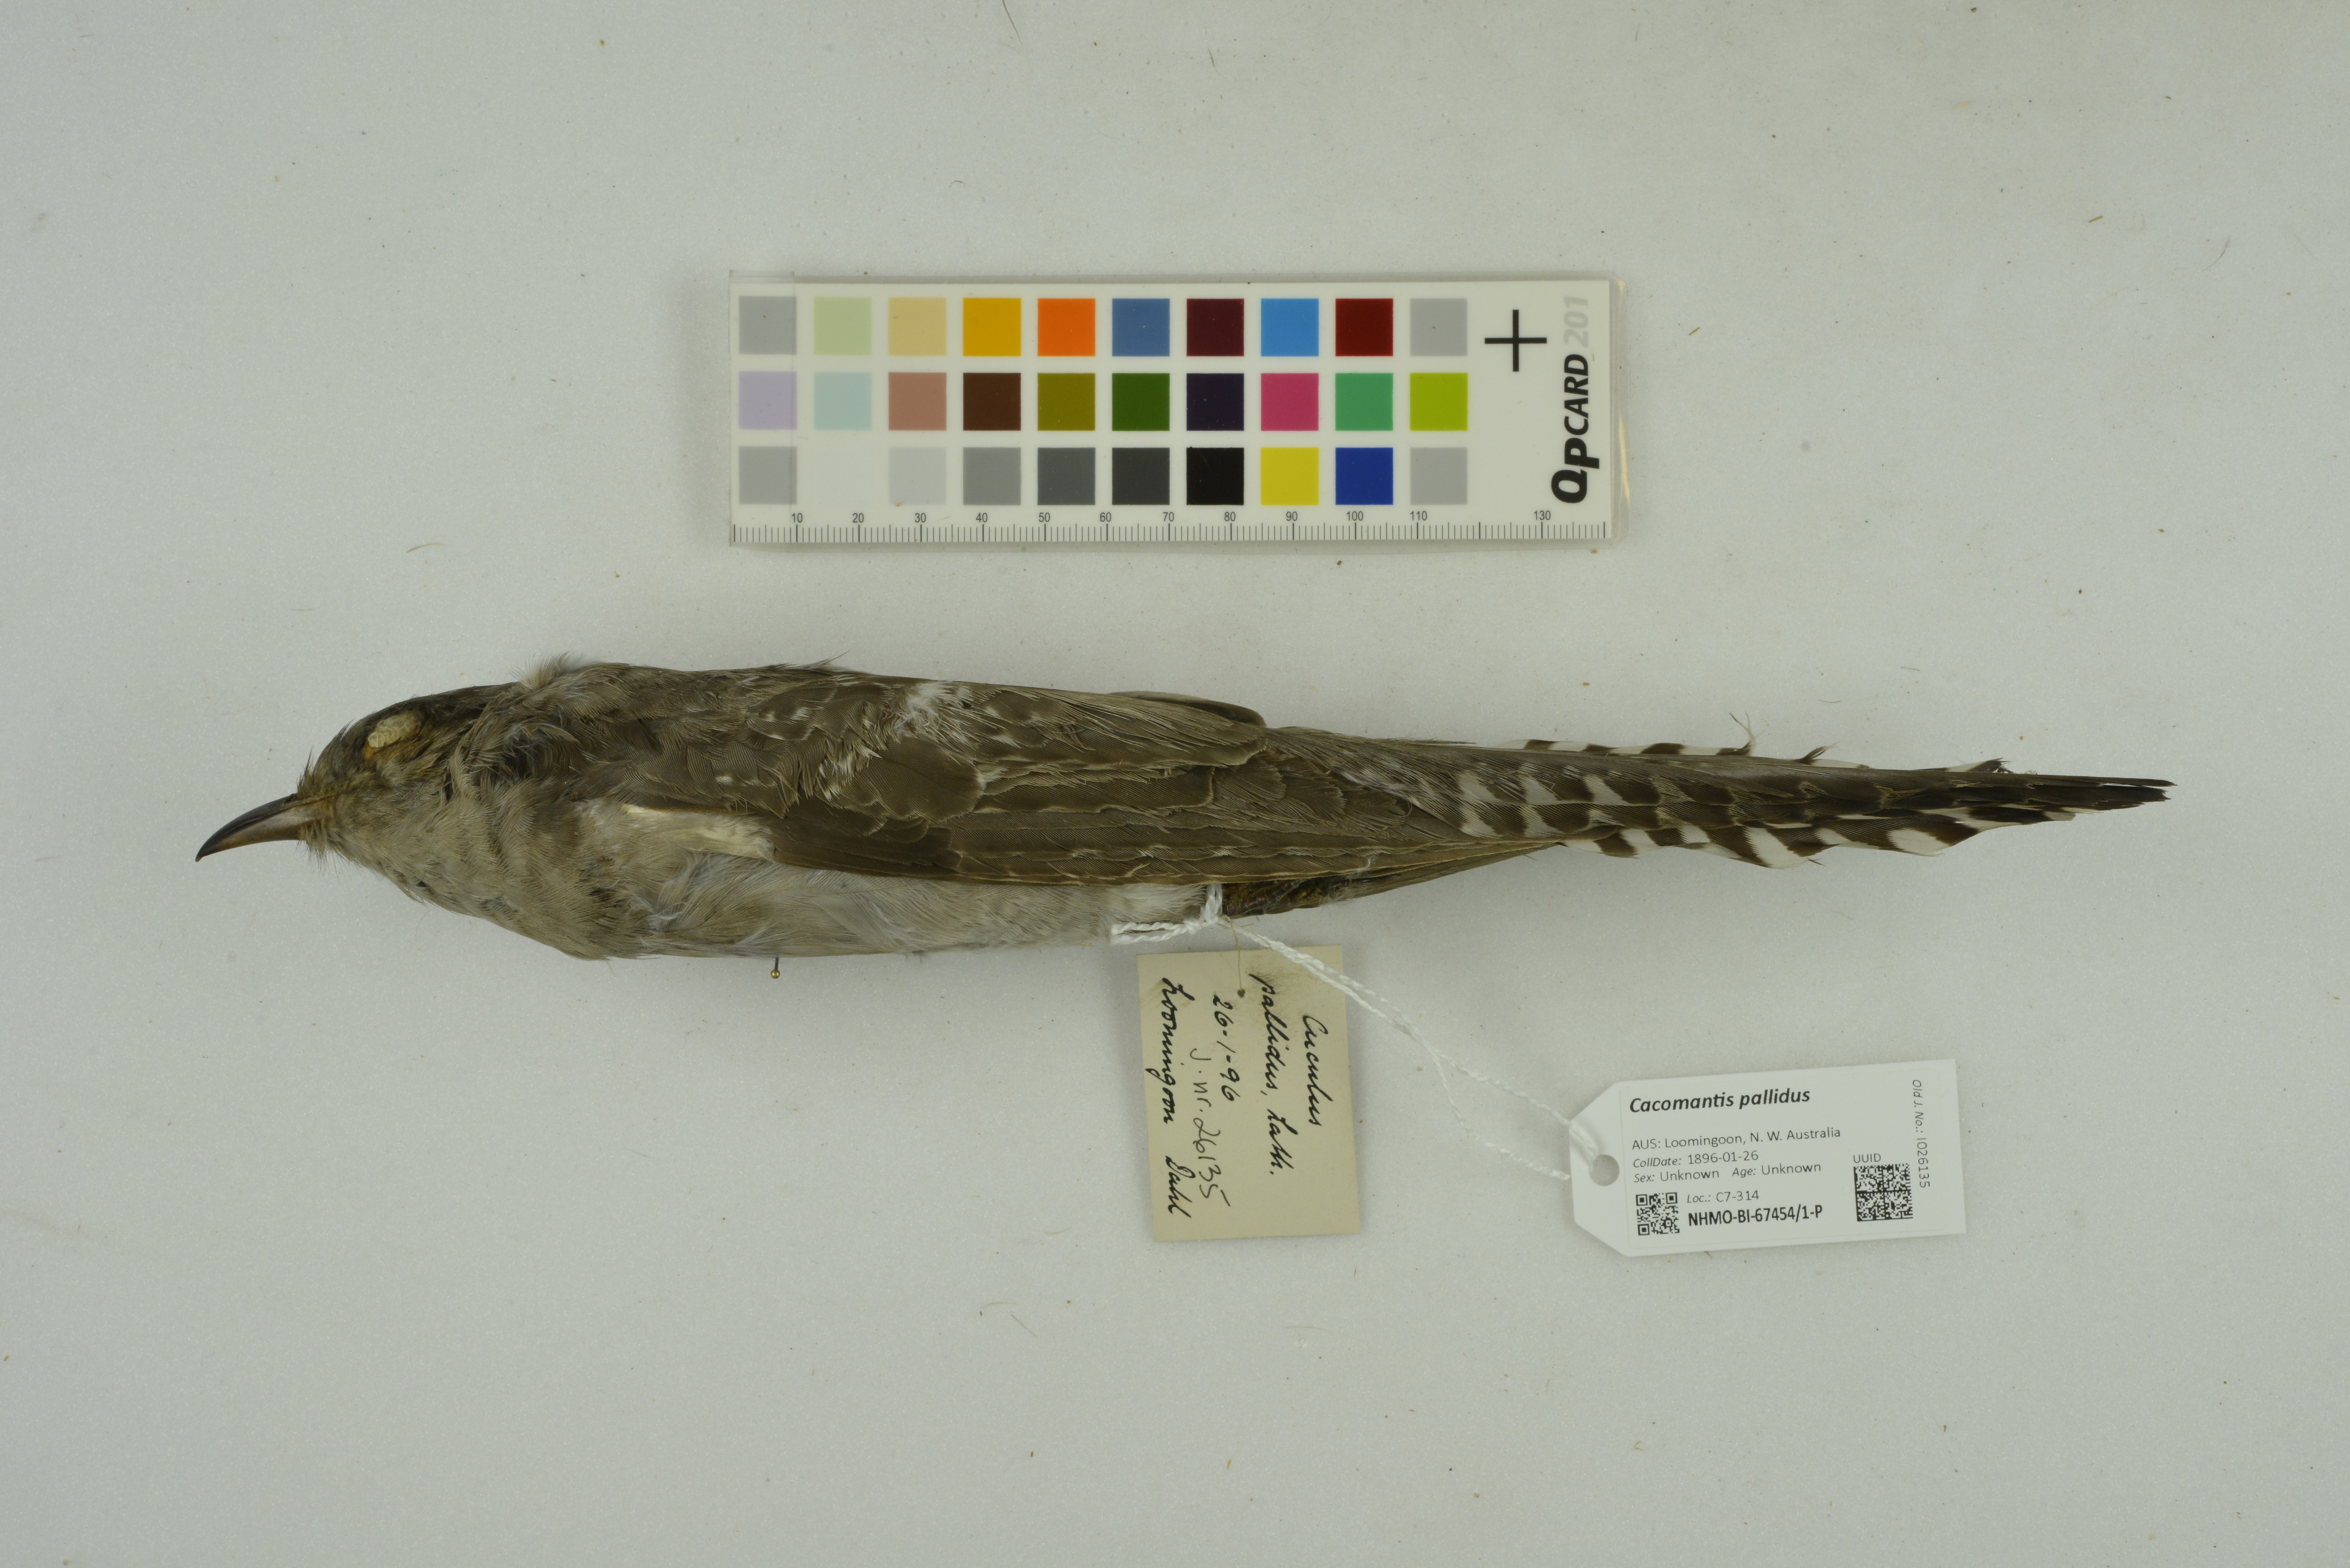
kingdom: Animalia
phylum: Chordata
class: Aves
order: Cuculiformes
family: Cuculidae
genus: Cuculus
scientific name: Cuculus pallidus
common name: Pallid cuckoo
